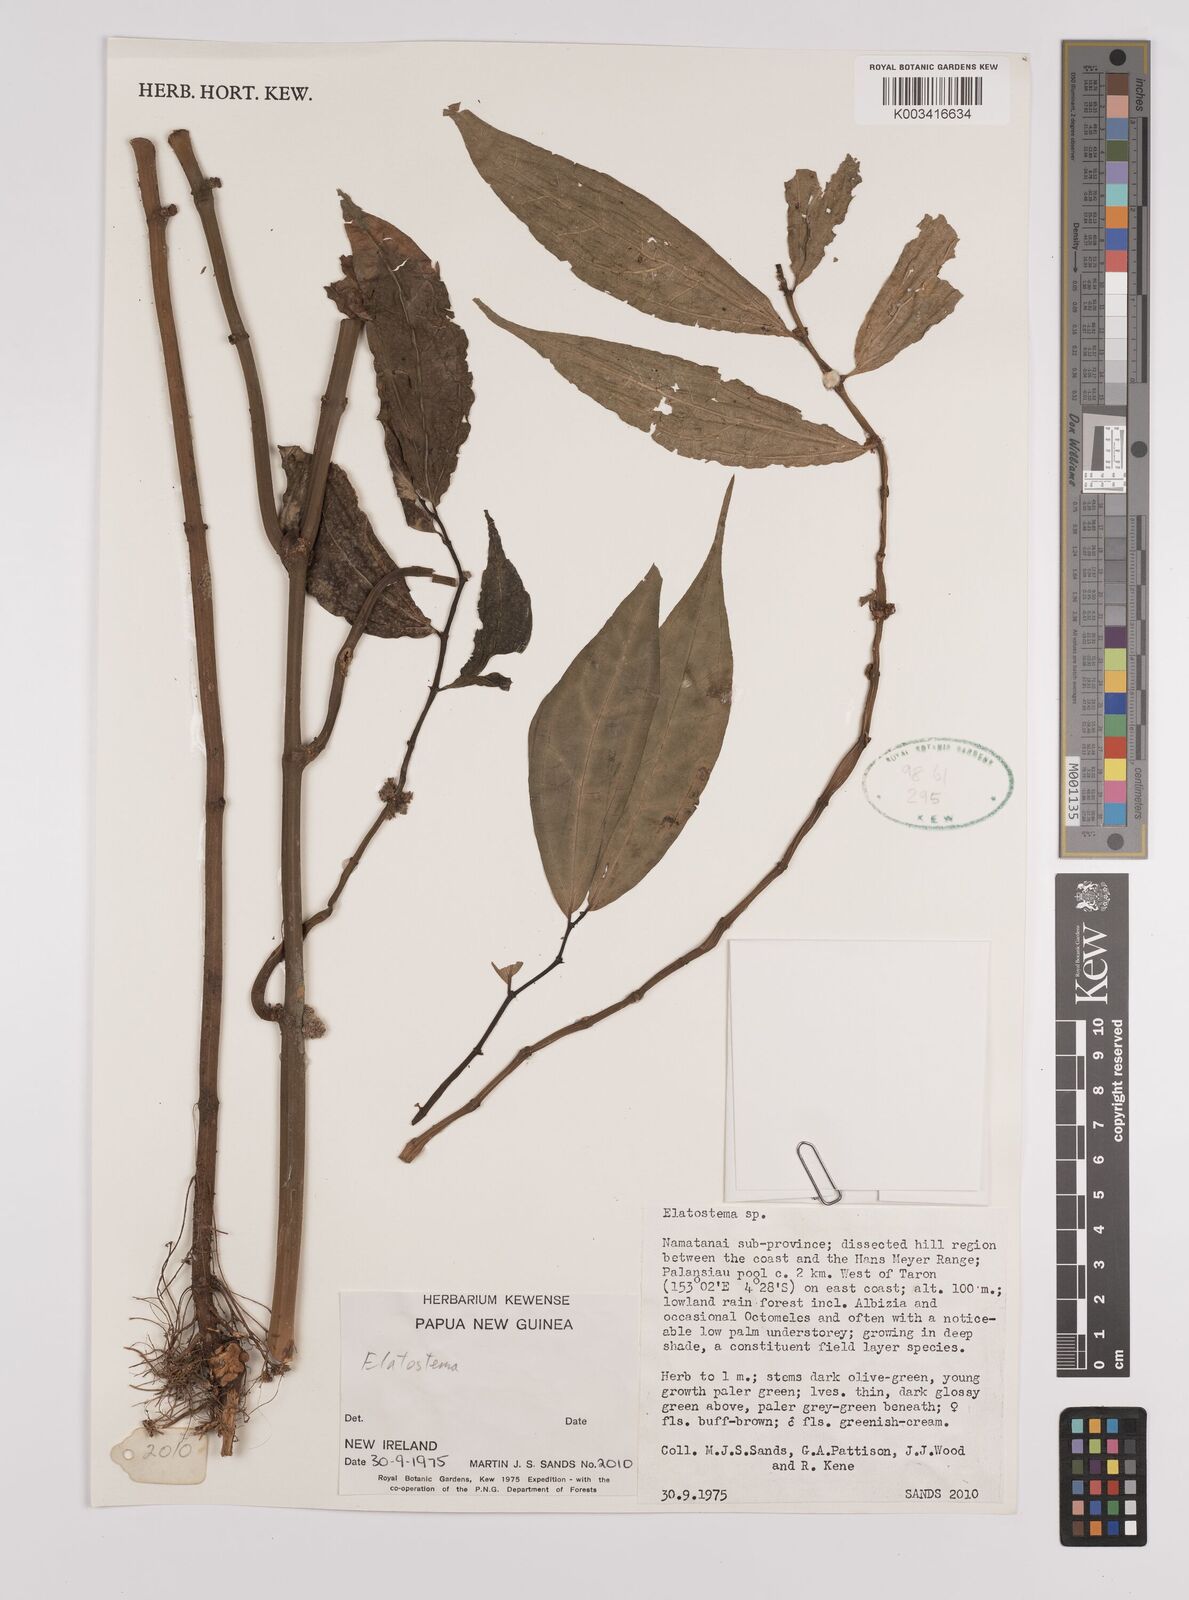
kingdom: Plantae
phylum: Tracheophyta
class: Magnoliopsida
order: Rosales
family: Urticaceae
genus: Elatostema
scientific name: Elatostema
